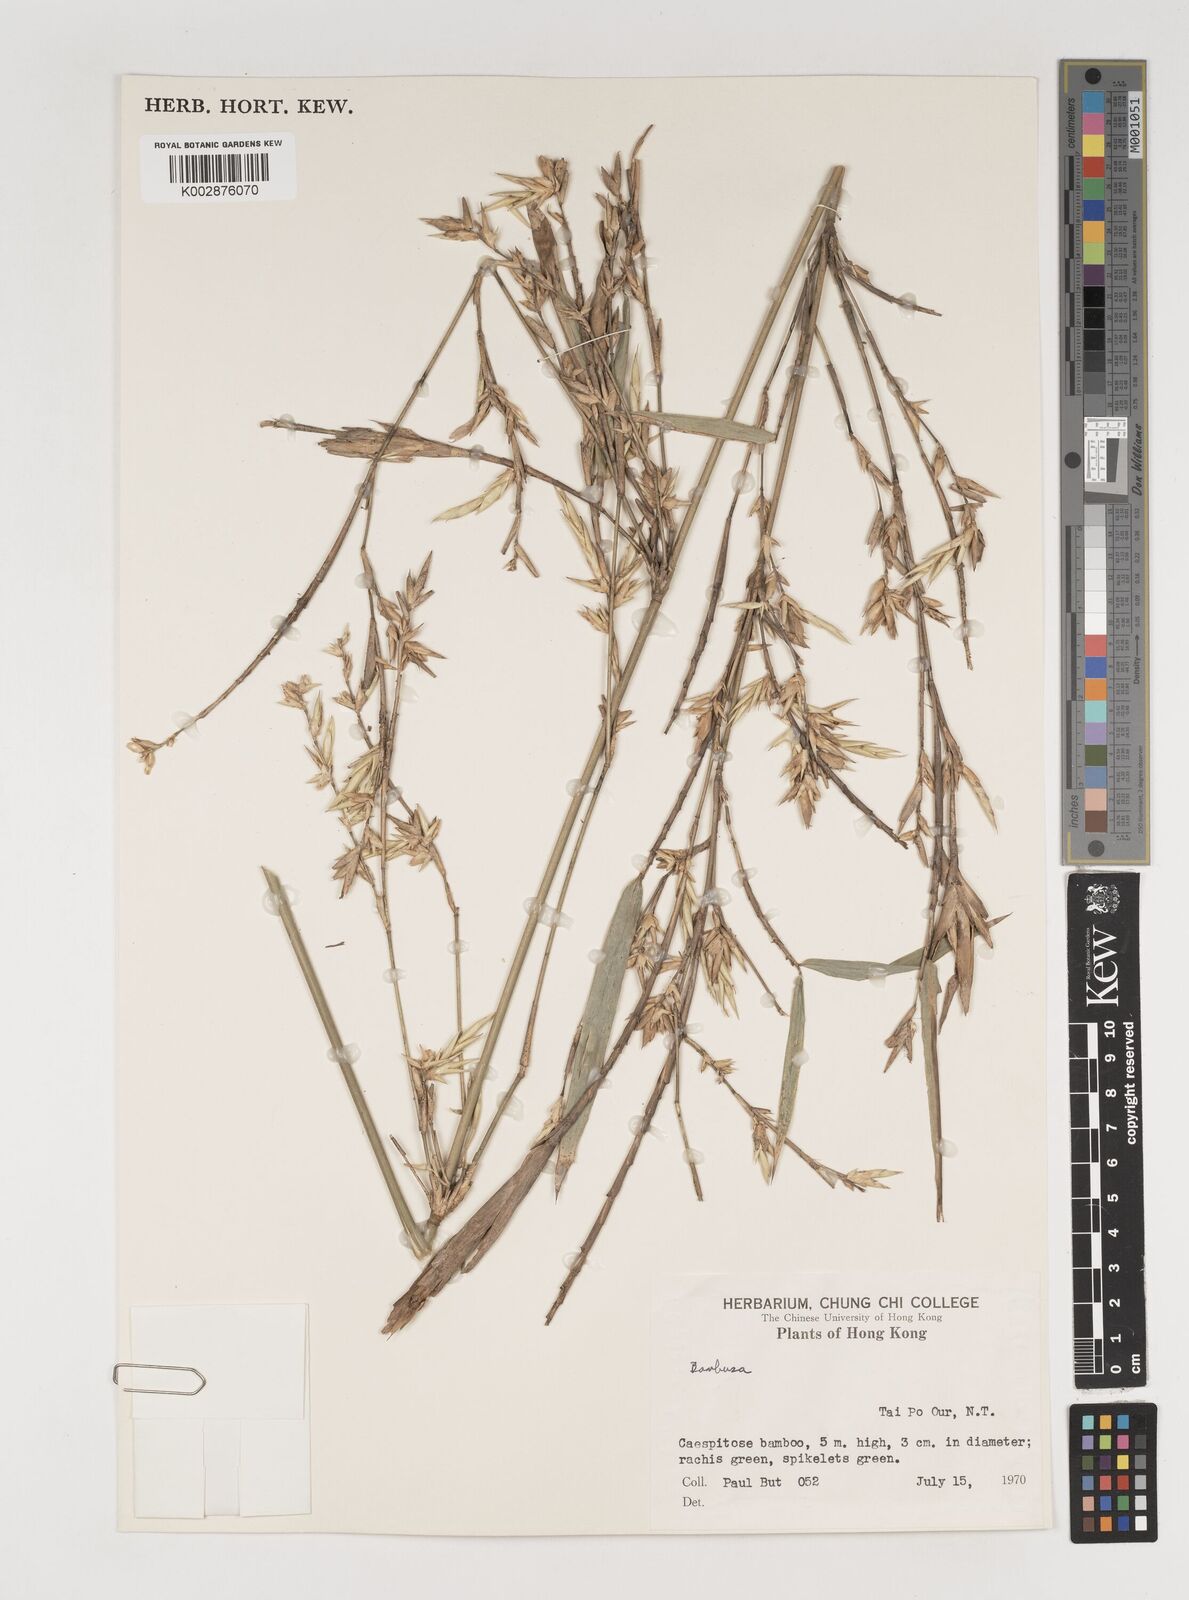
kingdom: Plantae
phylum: Tracheophyta
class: Liliopsida
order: Poales
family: Poaceae
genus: Bambusa
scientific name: Bambusa
